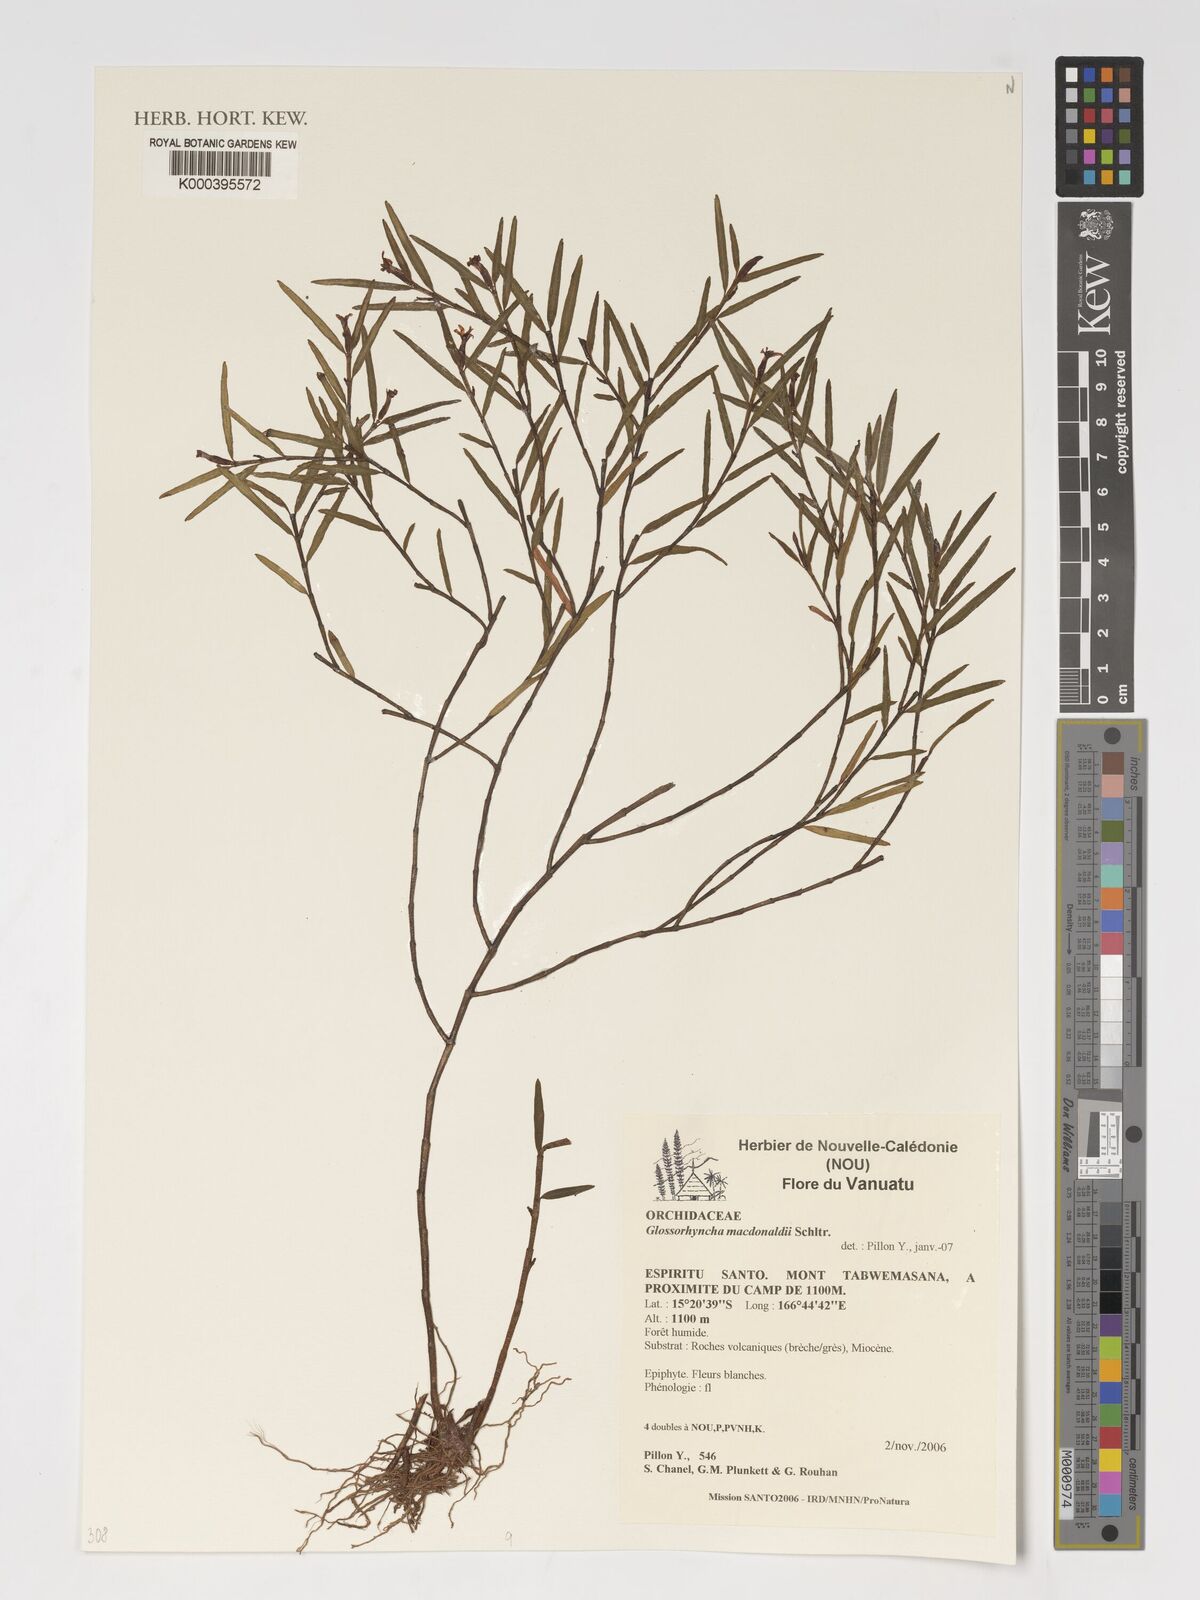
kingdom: Plantae
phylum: Tracheophyta
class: Liliopsida
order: Asparagales
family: Orchidaceae
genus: Glomera
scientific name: Glomera macdonaldii
